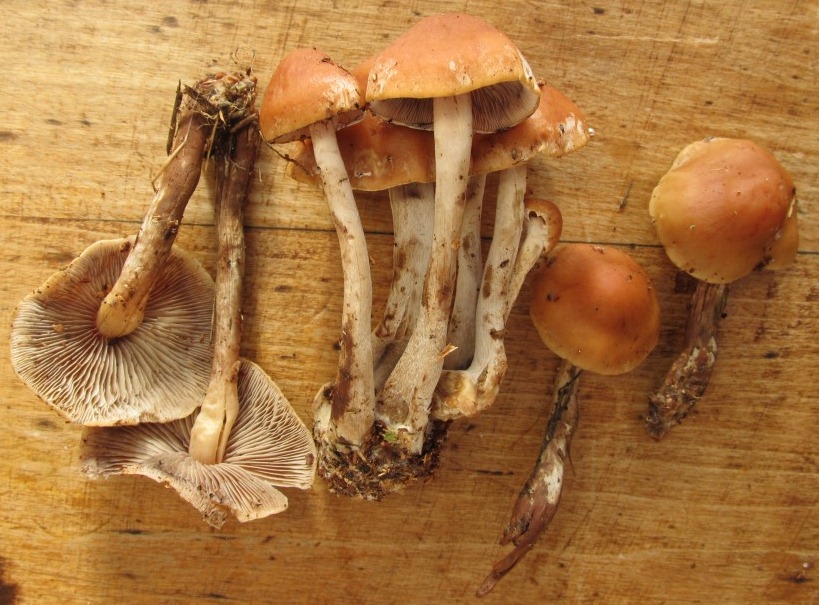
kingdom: Fungi
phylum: Basidiomycota
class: Agaricomycetes
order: Agaricales
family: Strophariaceae
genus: Hypholoma
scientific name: Hypholoma marginatum
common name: enlig svovlhat
